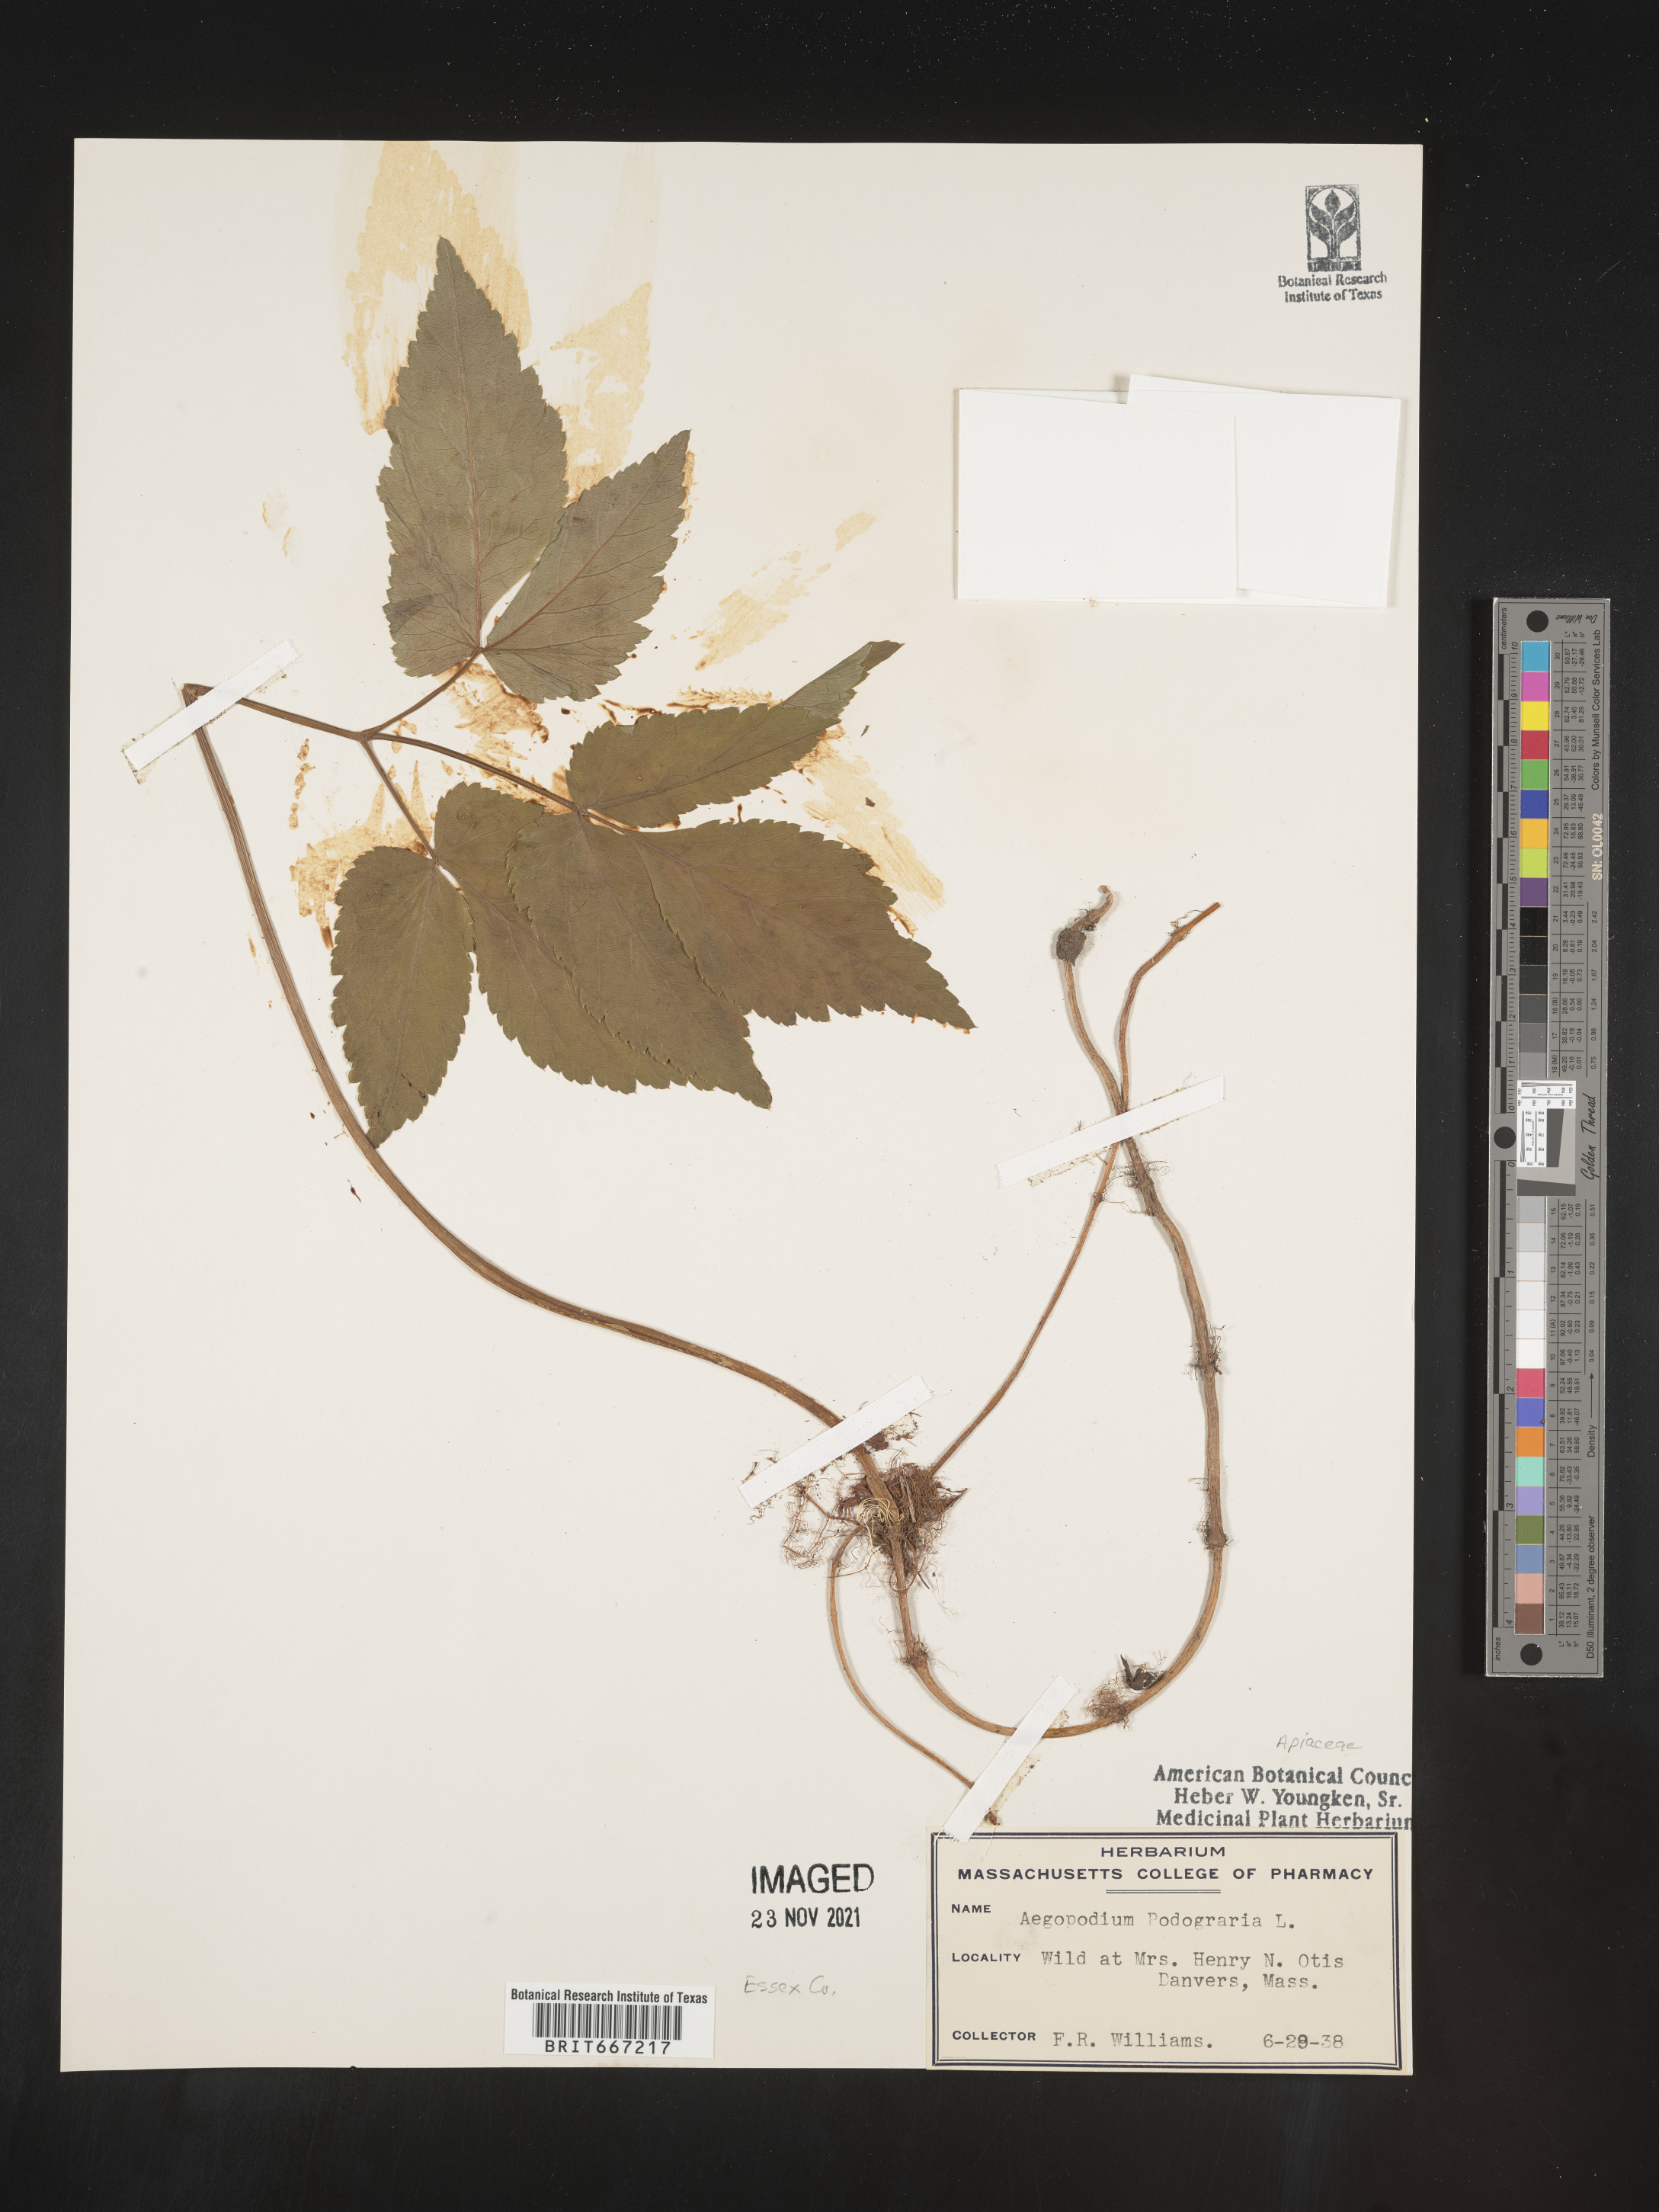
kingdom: Plantae
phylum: Tracheophyta
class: Magnoliopsida
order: Apiales
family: Apiaceae
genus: Aegopodium
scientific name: Aegopodium podagraria
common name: Ground-elder
